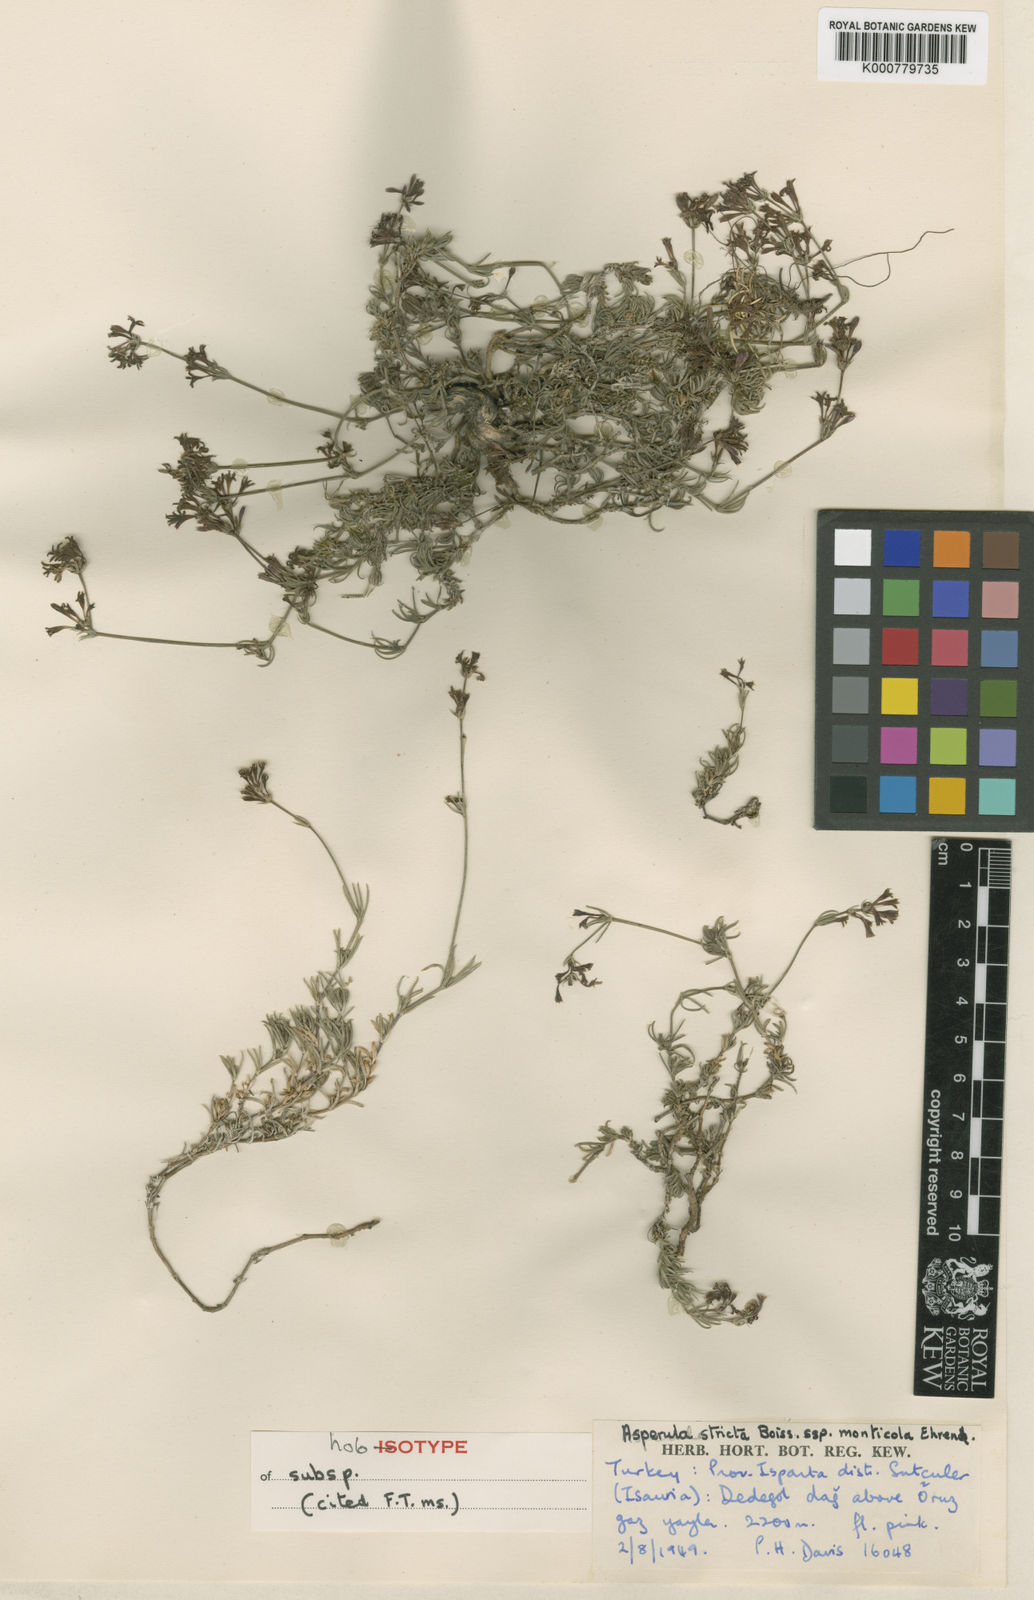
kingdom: Plantae
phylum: Tracheophyta
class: Magnoliopsida
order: Gentianales
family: Rubiaceae
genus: Cynanchica
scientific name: Cynanchica stricta
